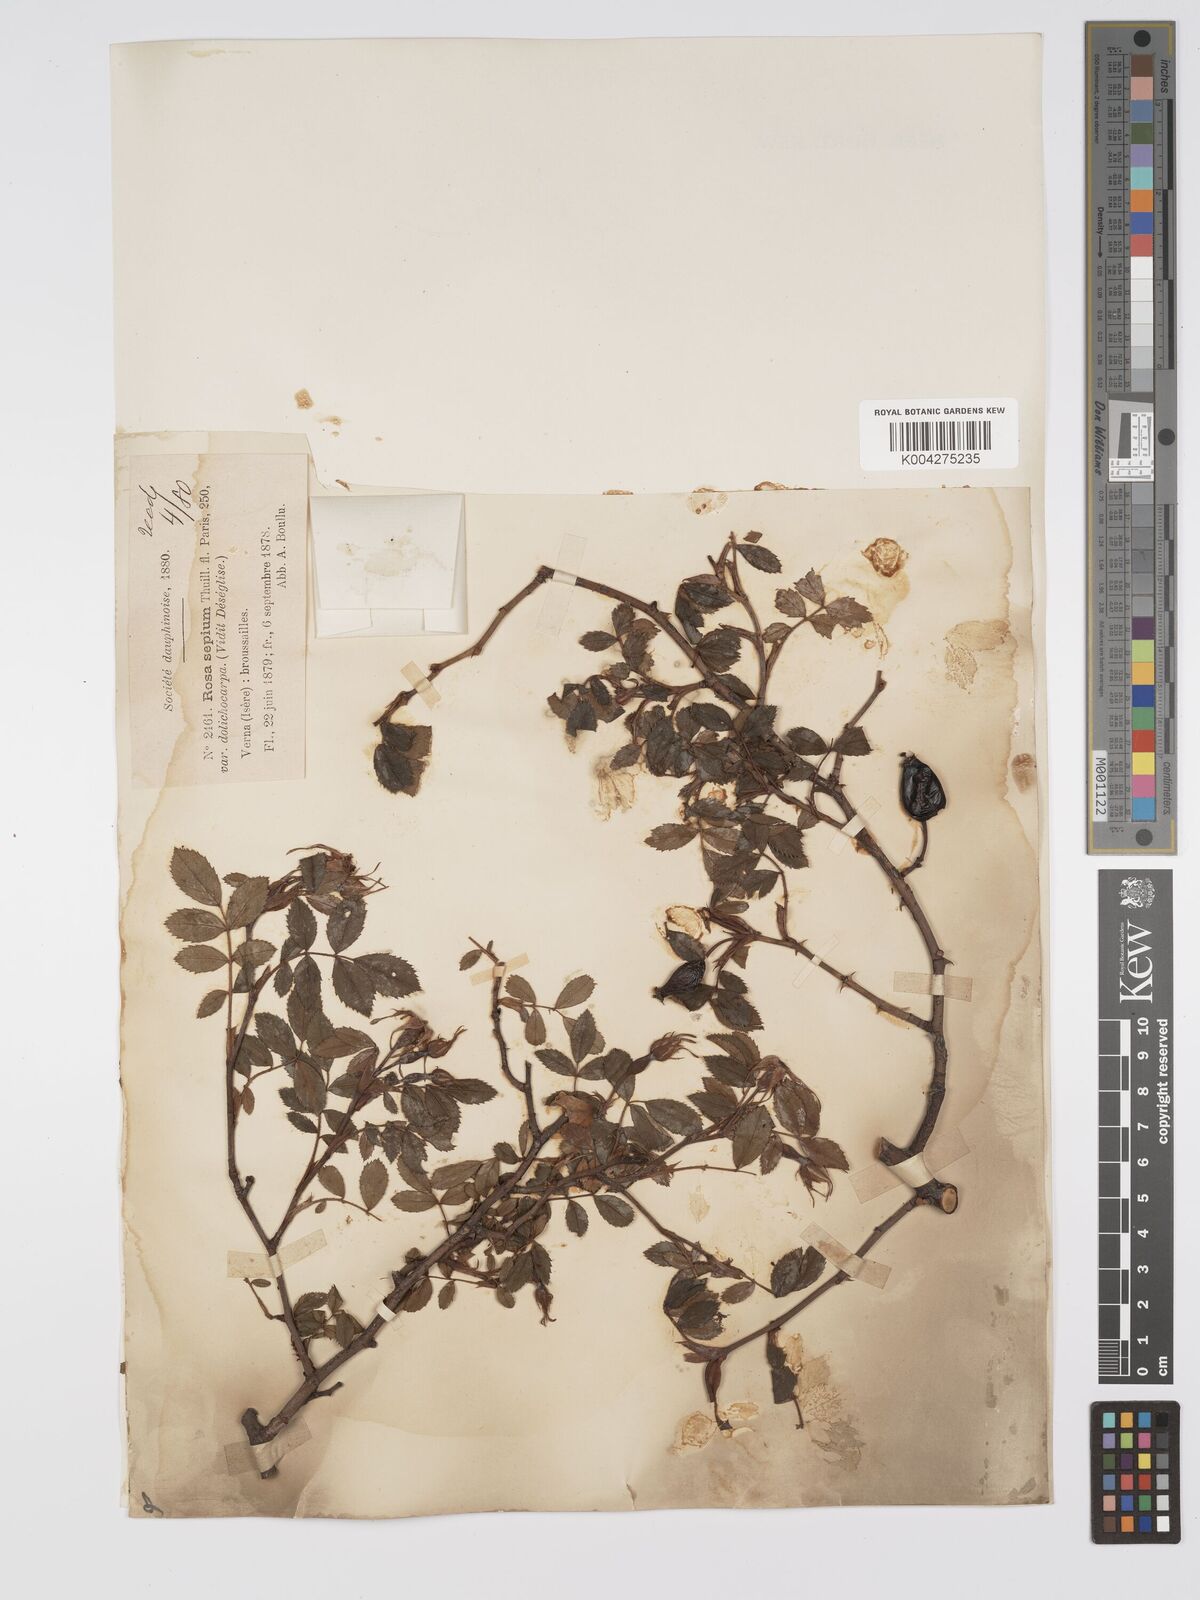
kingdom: Plantae
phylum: Tracheophyta
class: Magnoliopsida
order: Rosales
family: Rosaceae
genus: Rosa
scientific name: Rosa
